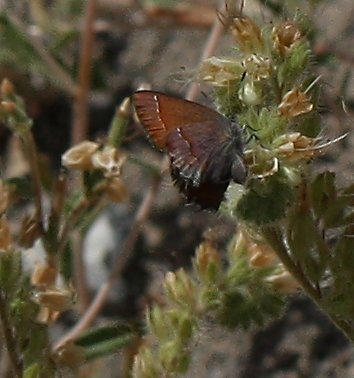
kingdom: Animalia
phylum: Arthropoda
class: Insecta
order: Lepidoptera
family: Lycaenidae
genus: Callophrys
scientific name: Callophrys affinis
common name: Western Green Hairstreak
